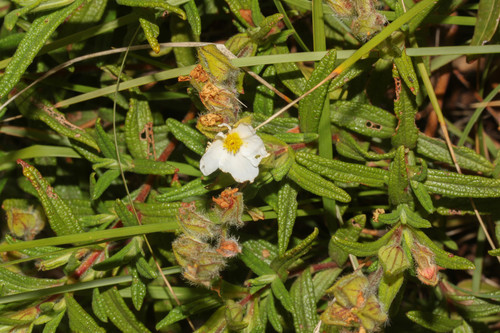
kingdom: Plantae
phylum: Tracheophyta
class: Magnoliopsida
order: Malvales
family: Cistaceae
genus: Cistus
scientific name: Cistus monspeliensis
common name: Montpelier cistus
